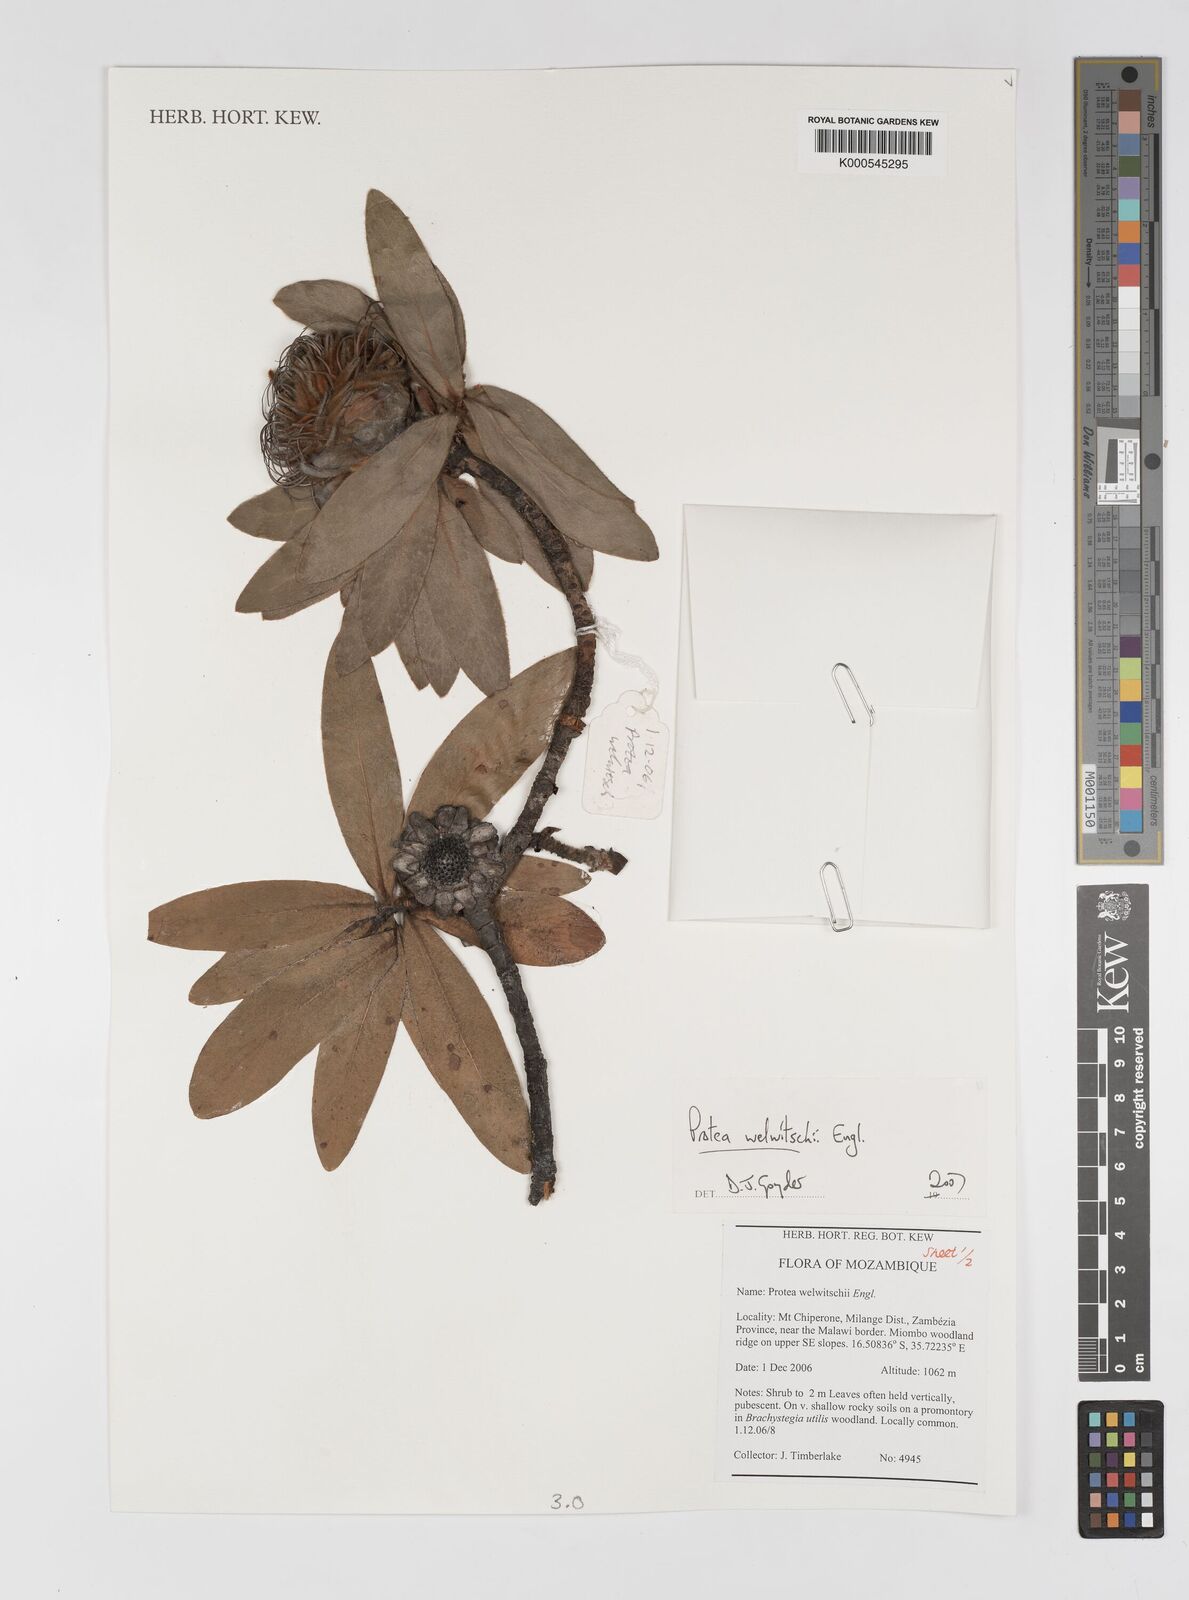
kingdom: Plantae
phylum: Tracheophyta
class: Magnoliopsida
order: Proteales
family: Proteaceae
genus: Protea
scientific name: Protea welwitschii
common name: Cluster-head protea
